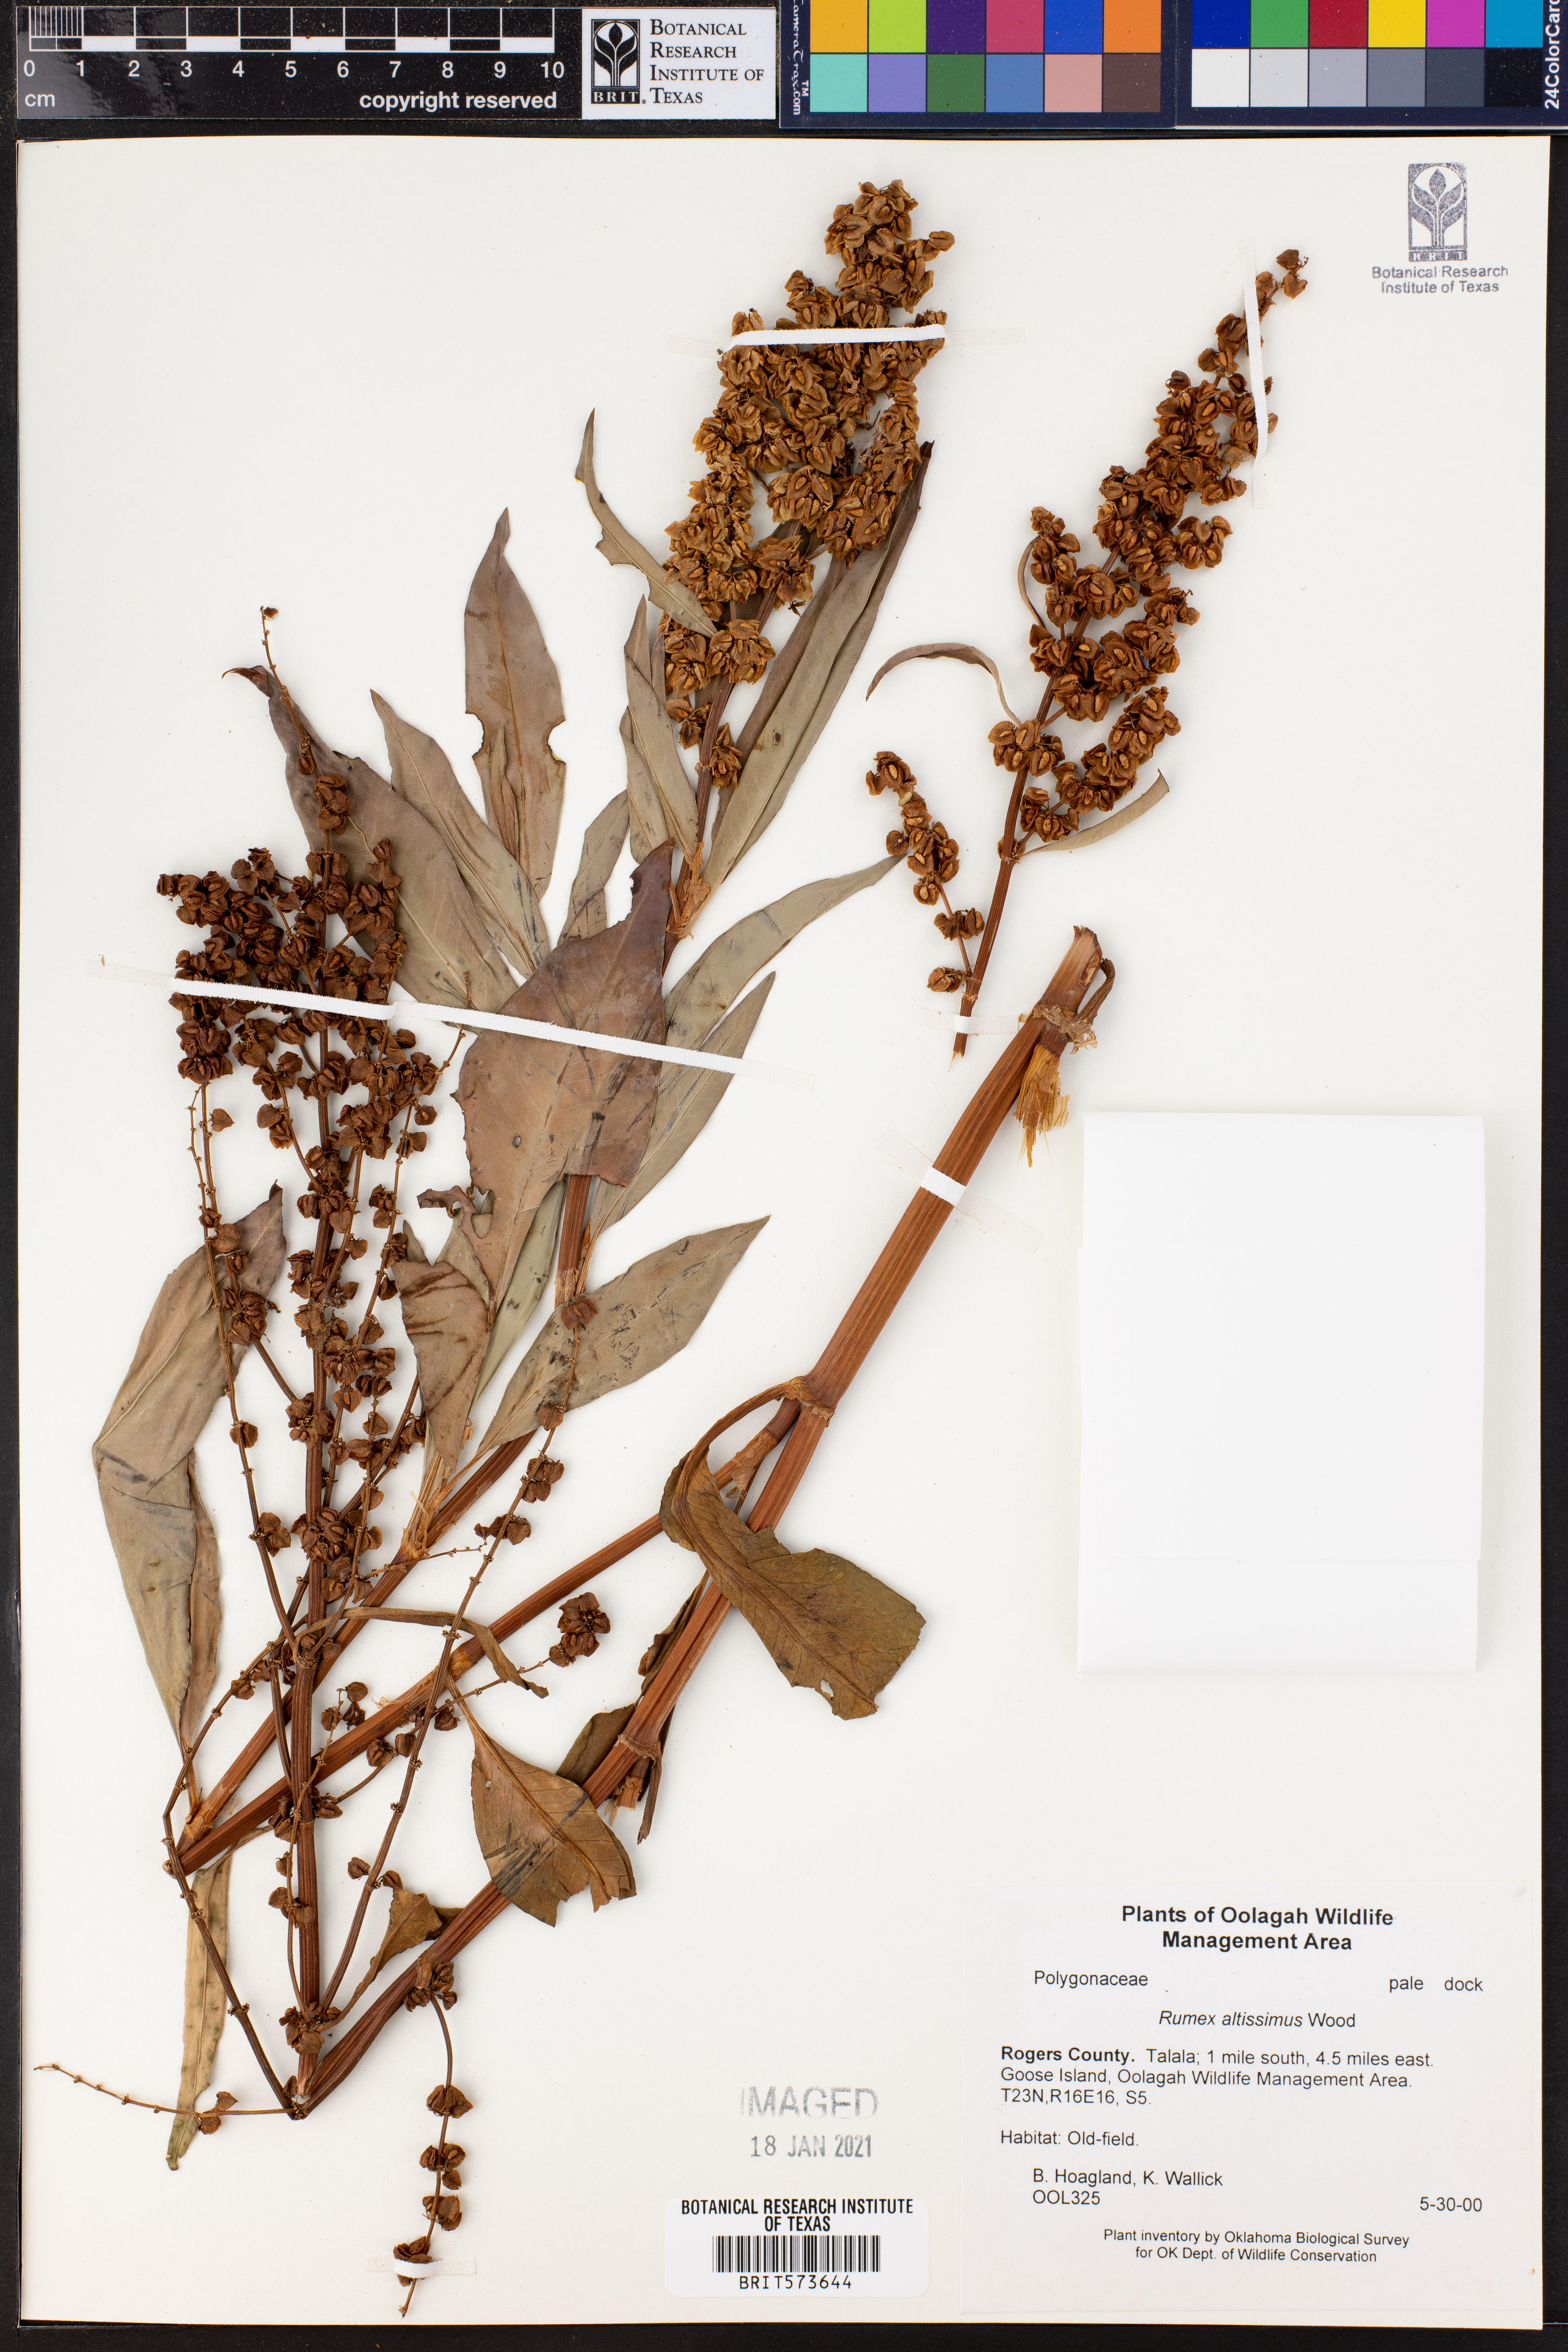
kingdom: Plantae
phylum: Tracheophyta
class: Magnoliopsida
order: Caryophyllales
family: Polygonaceae
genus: Rumex
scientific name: Rumex altissimus
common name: Smooth dock
